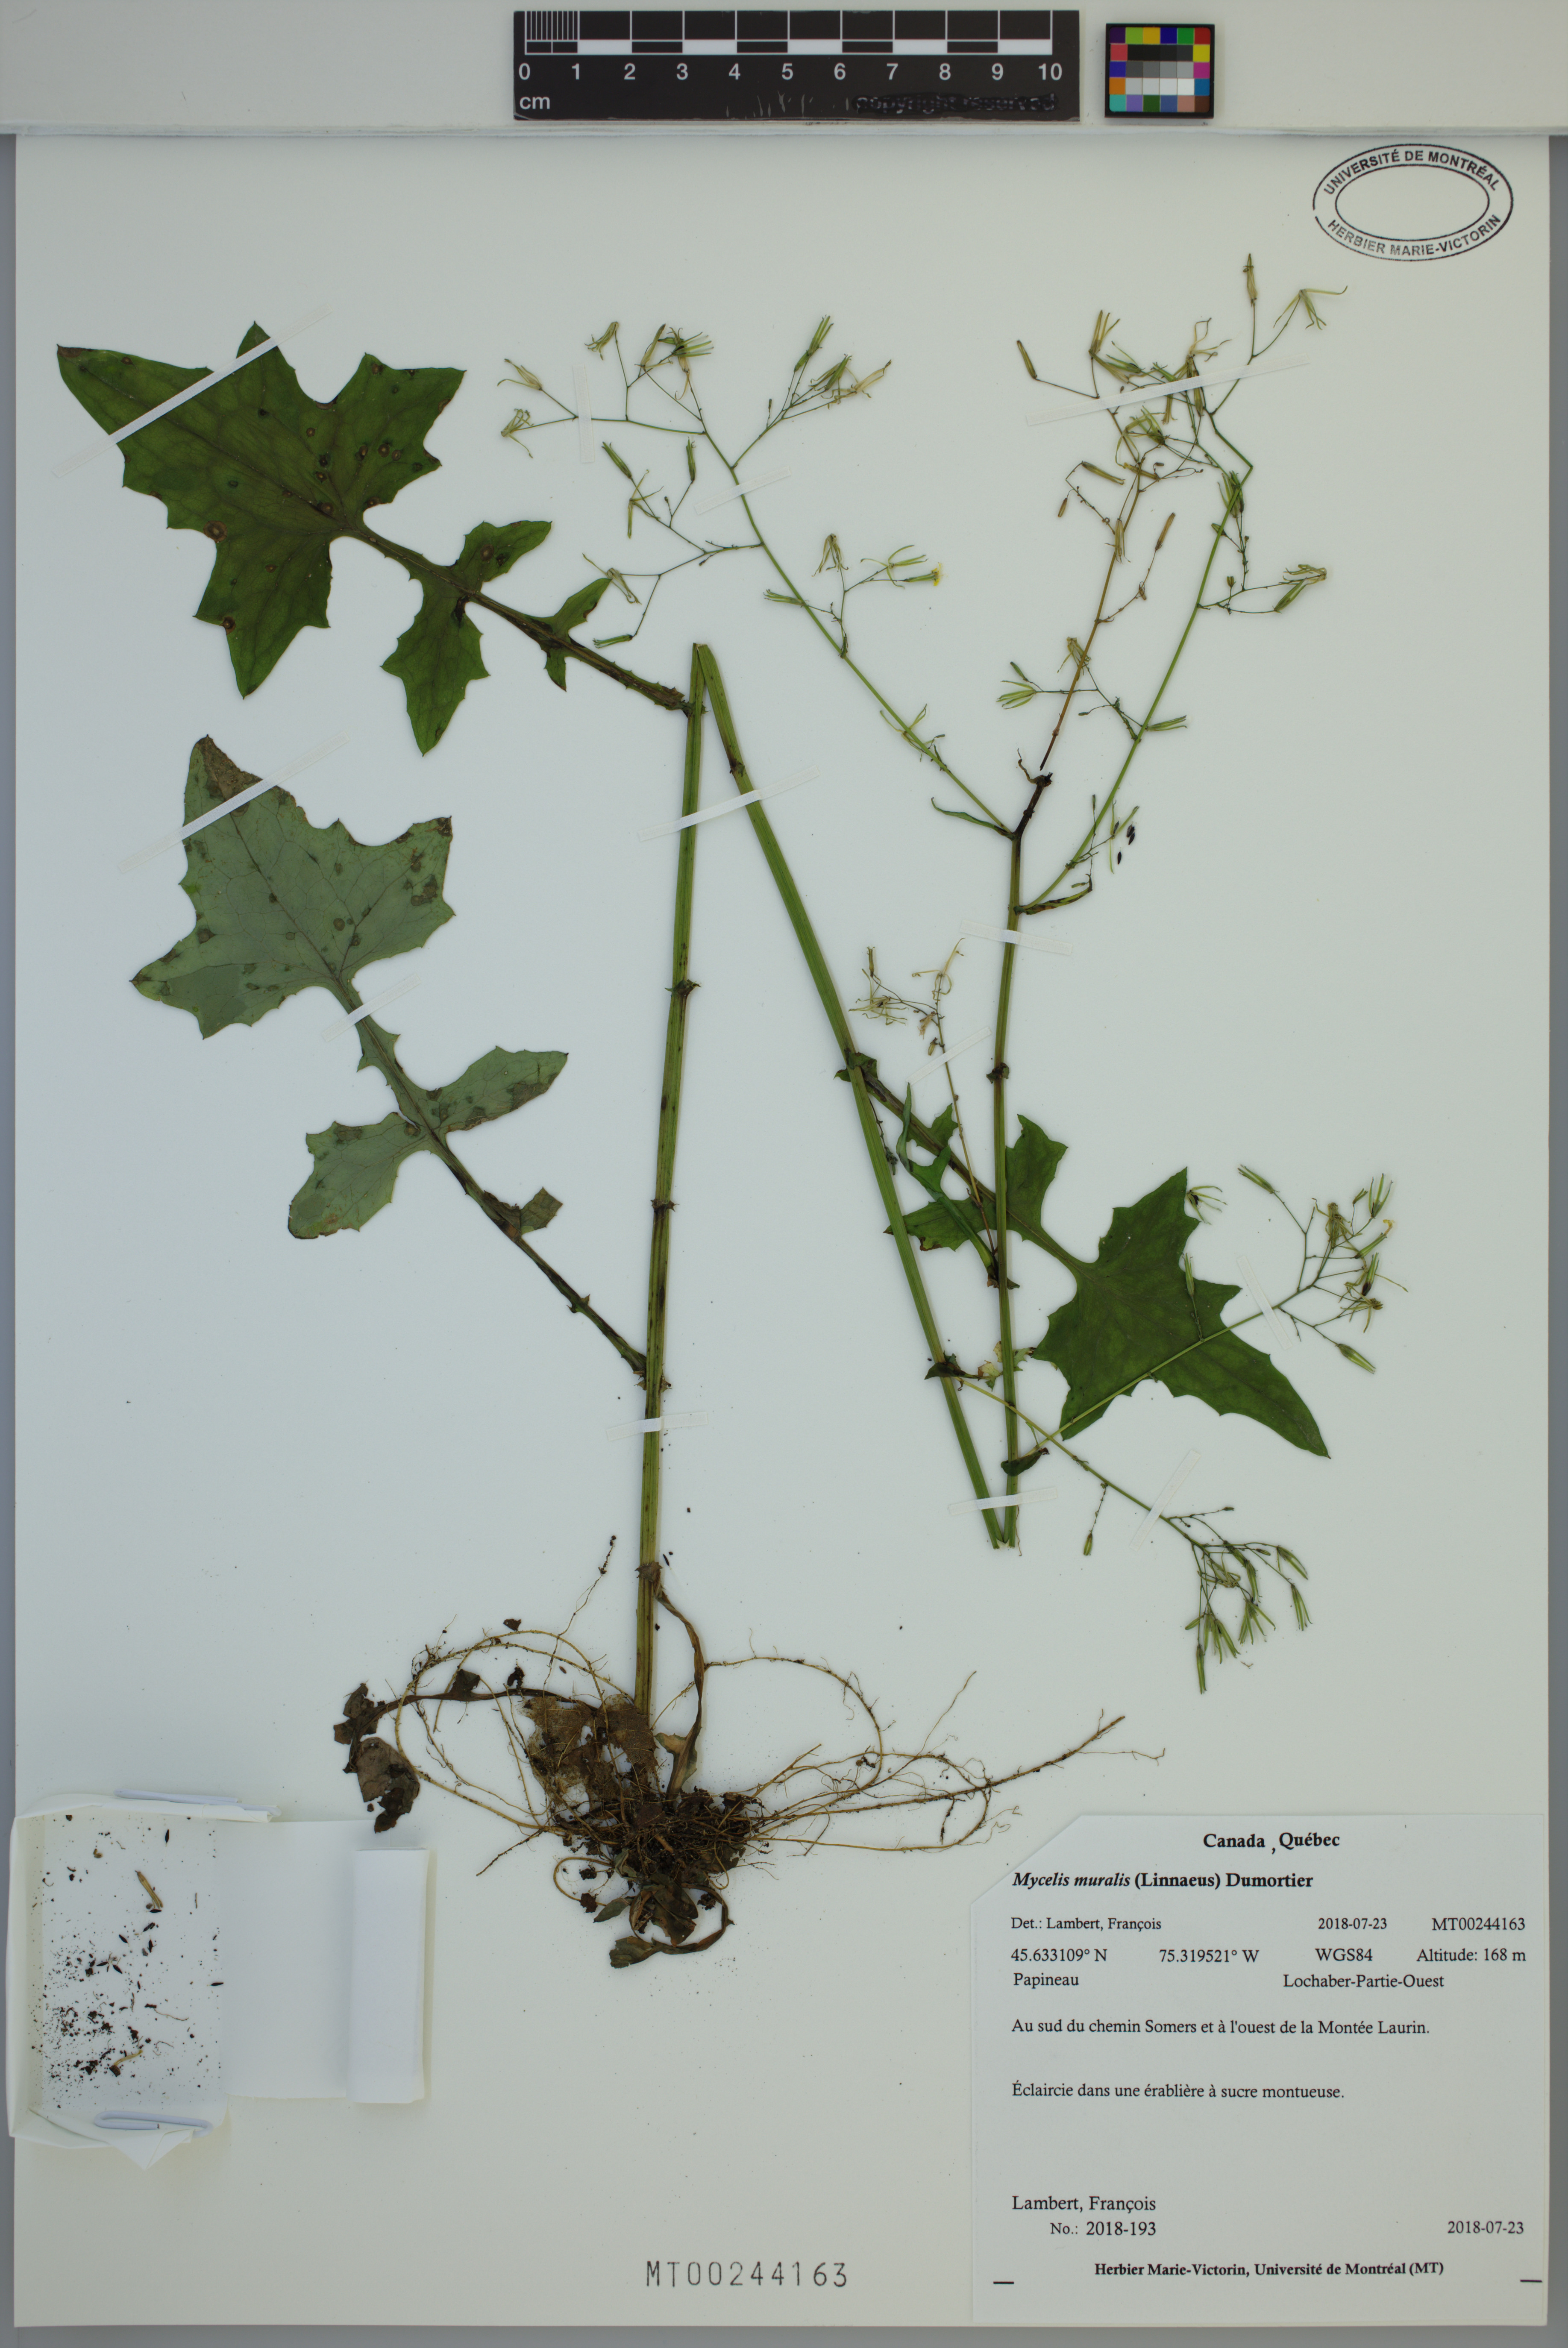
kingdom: Plantae
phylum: Tracheophyta
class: Magnoliopsida
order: Asterales
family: Asteraceae
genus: Mycelis
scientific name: Mycelis muralis
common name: Wall lettuce
